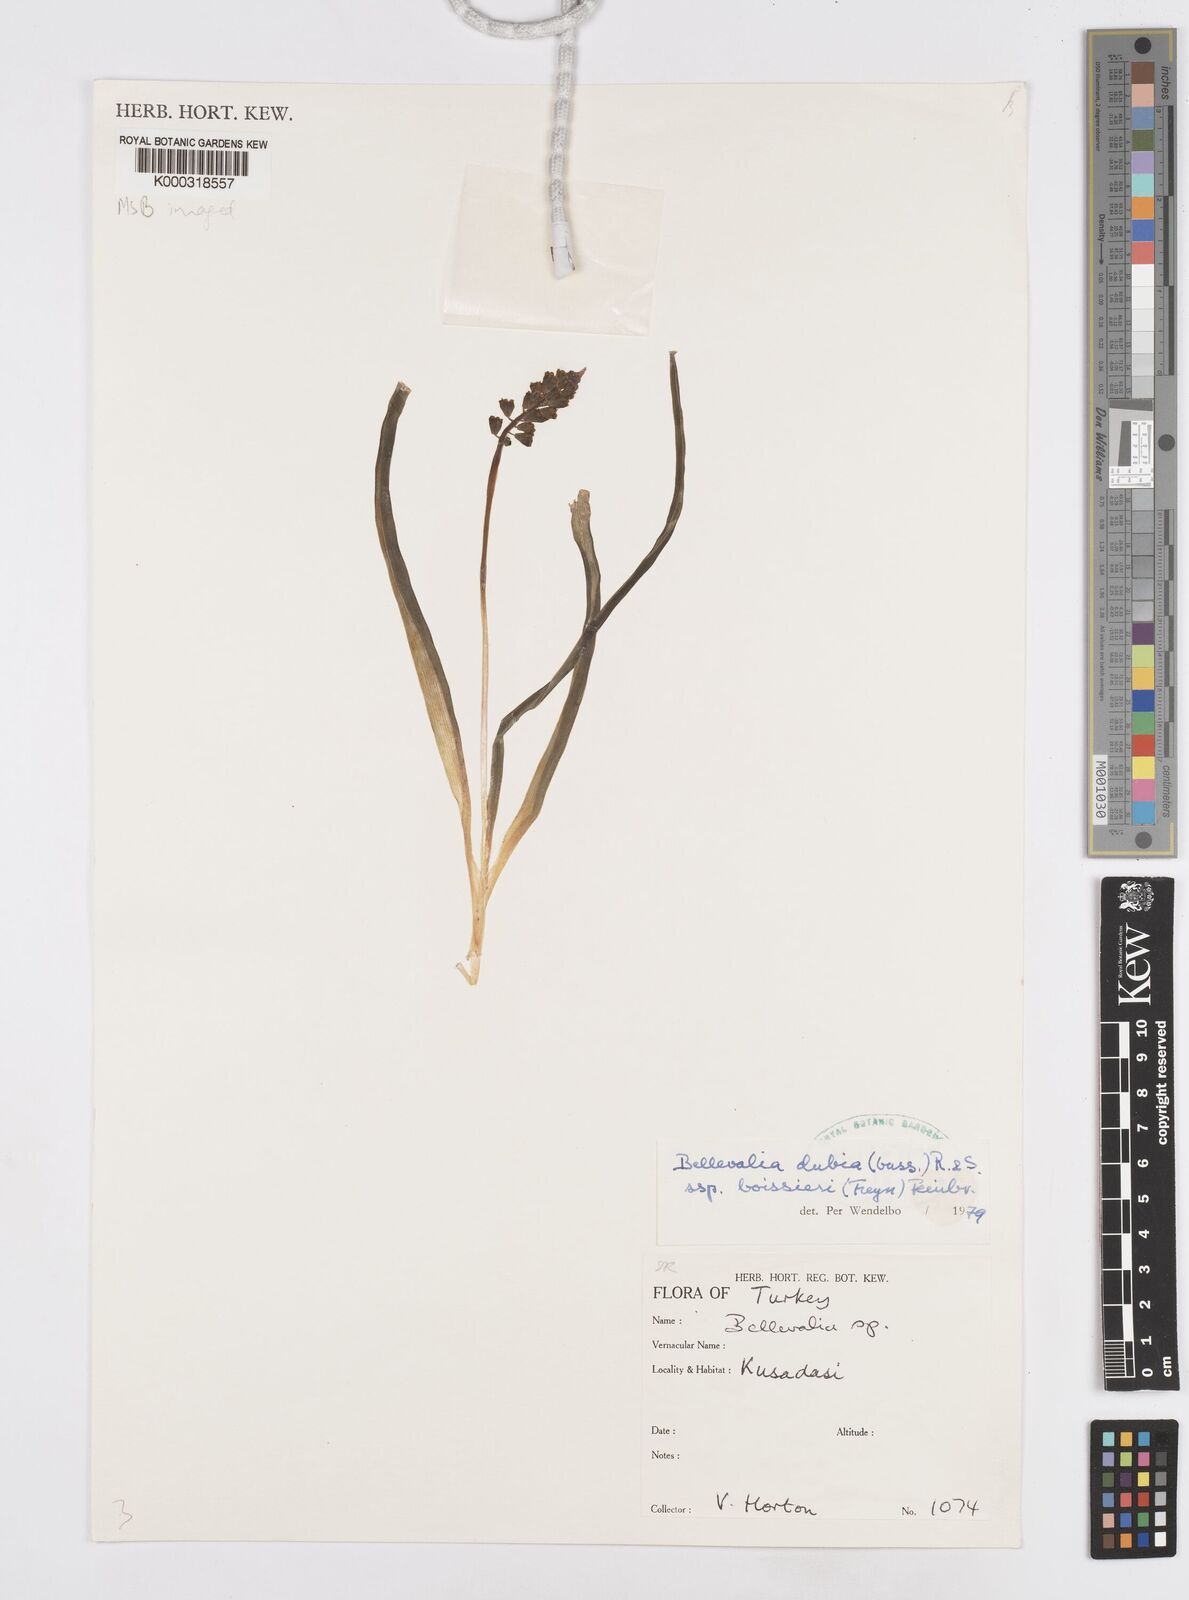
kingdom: Plantae
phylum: Tracheophyta
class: Liliopsida
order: Asparagales
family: Asparagaceae
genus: Bellevalia
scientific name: Bellevalia dubia
